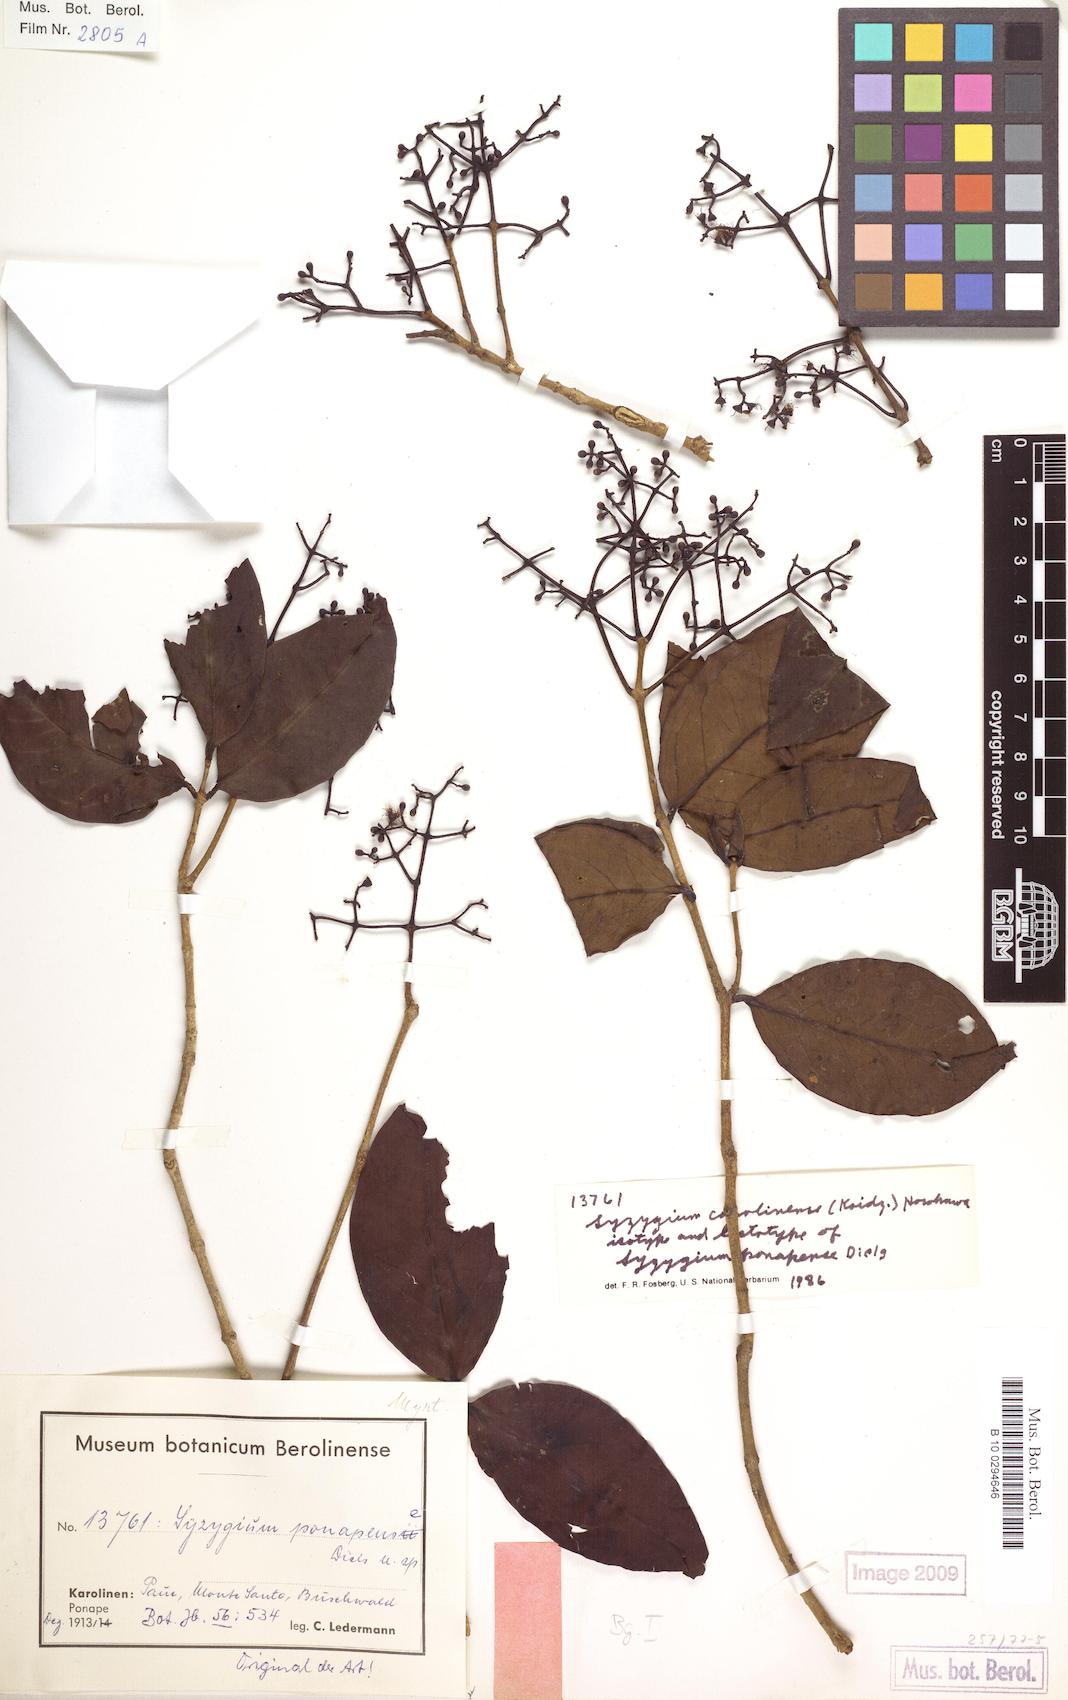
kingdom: Plantae
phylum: Tracheophyta
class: Magnoliopsida
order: Myrtales
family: Myrtaceae
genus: Syzygium
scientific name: Syzygium carolinense
